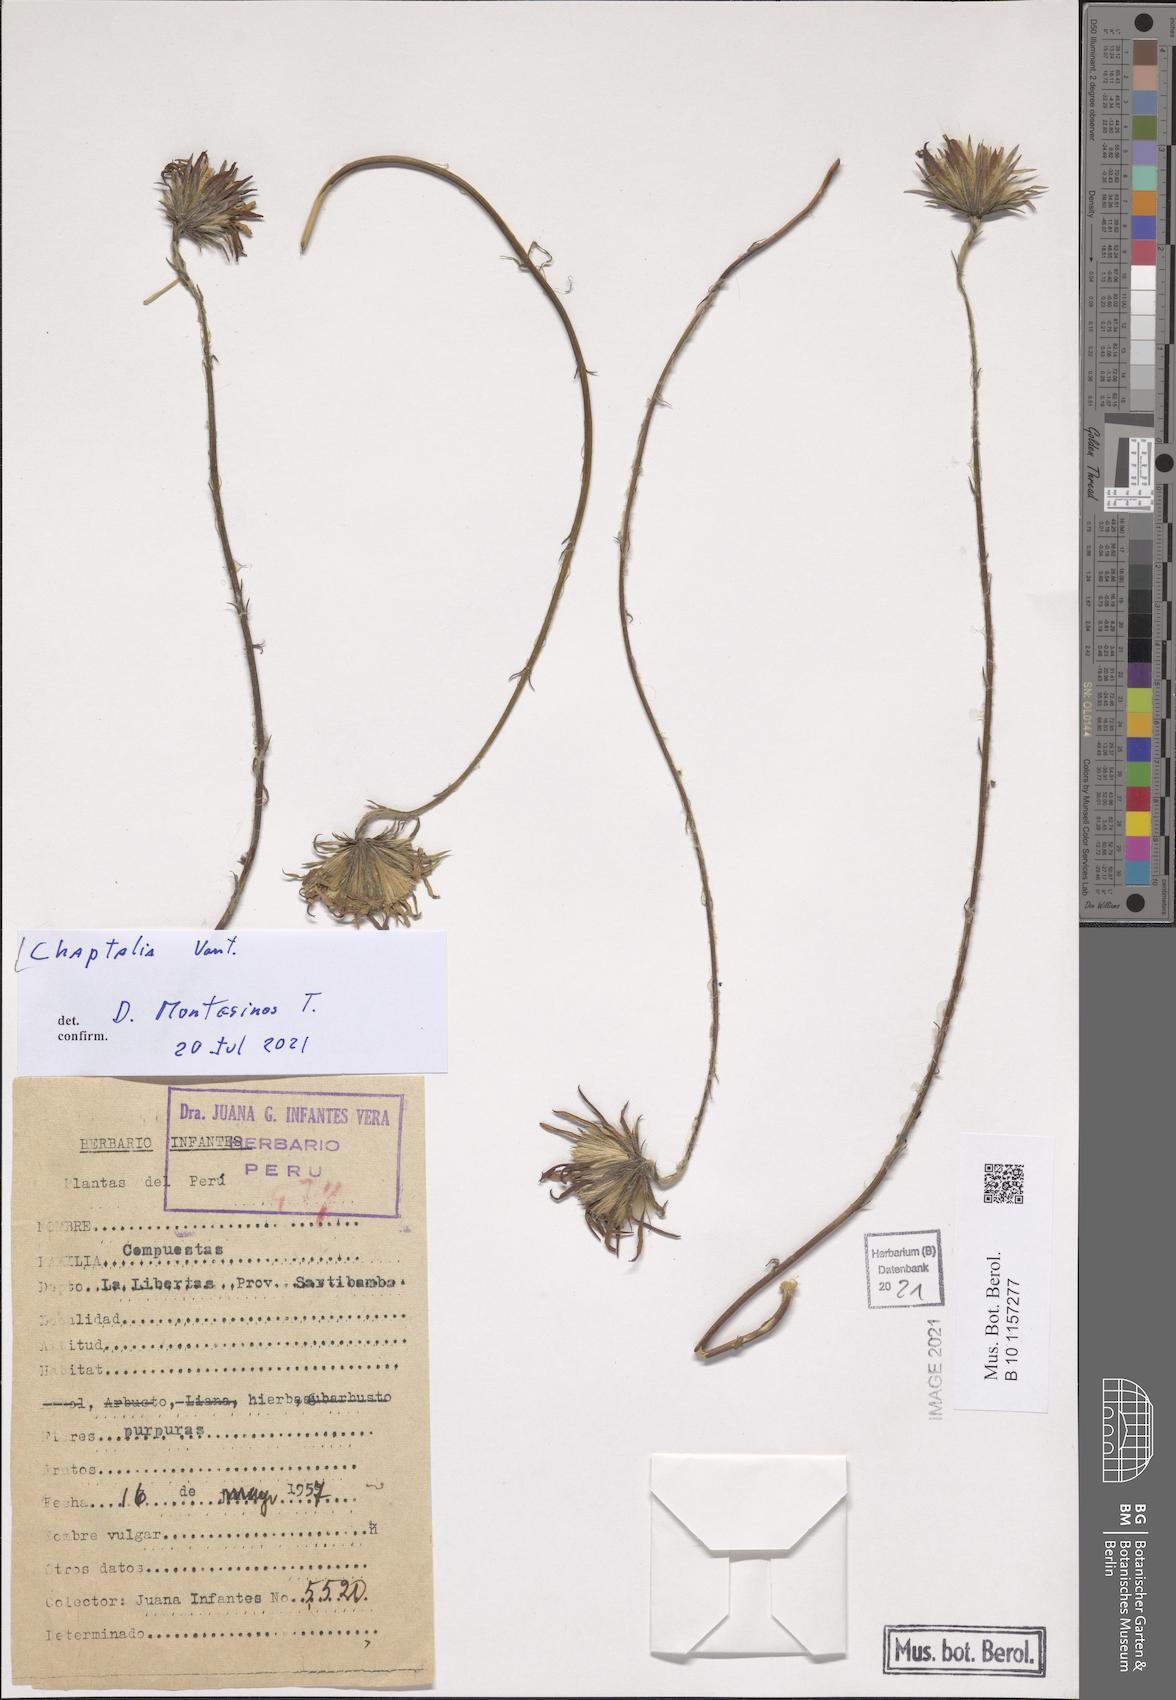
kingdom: Plantae
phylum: Tracheophyta
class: Magnoliopsida
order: Asterales
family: Asteraceae
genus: Chaptalia
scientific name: Chaptalia
